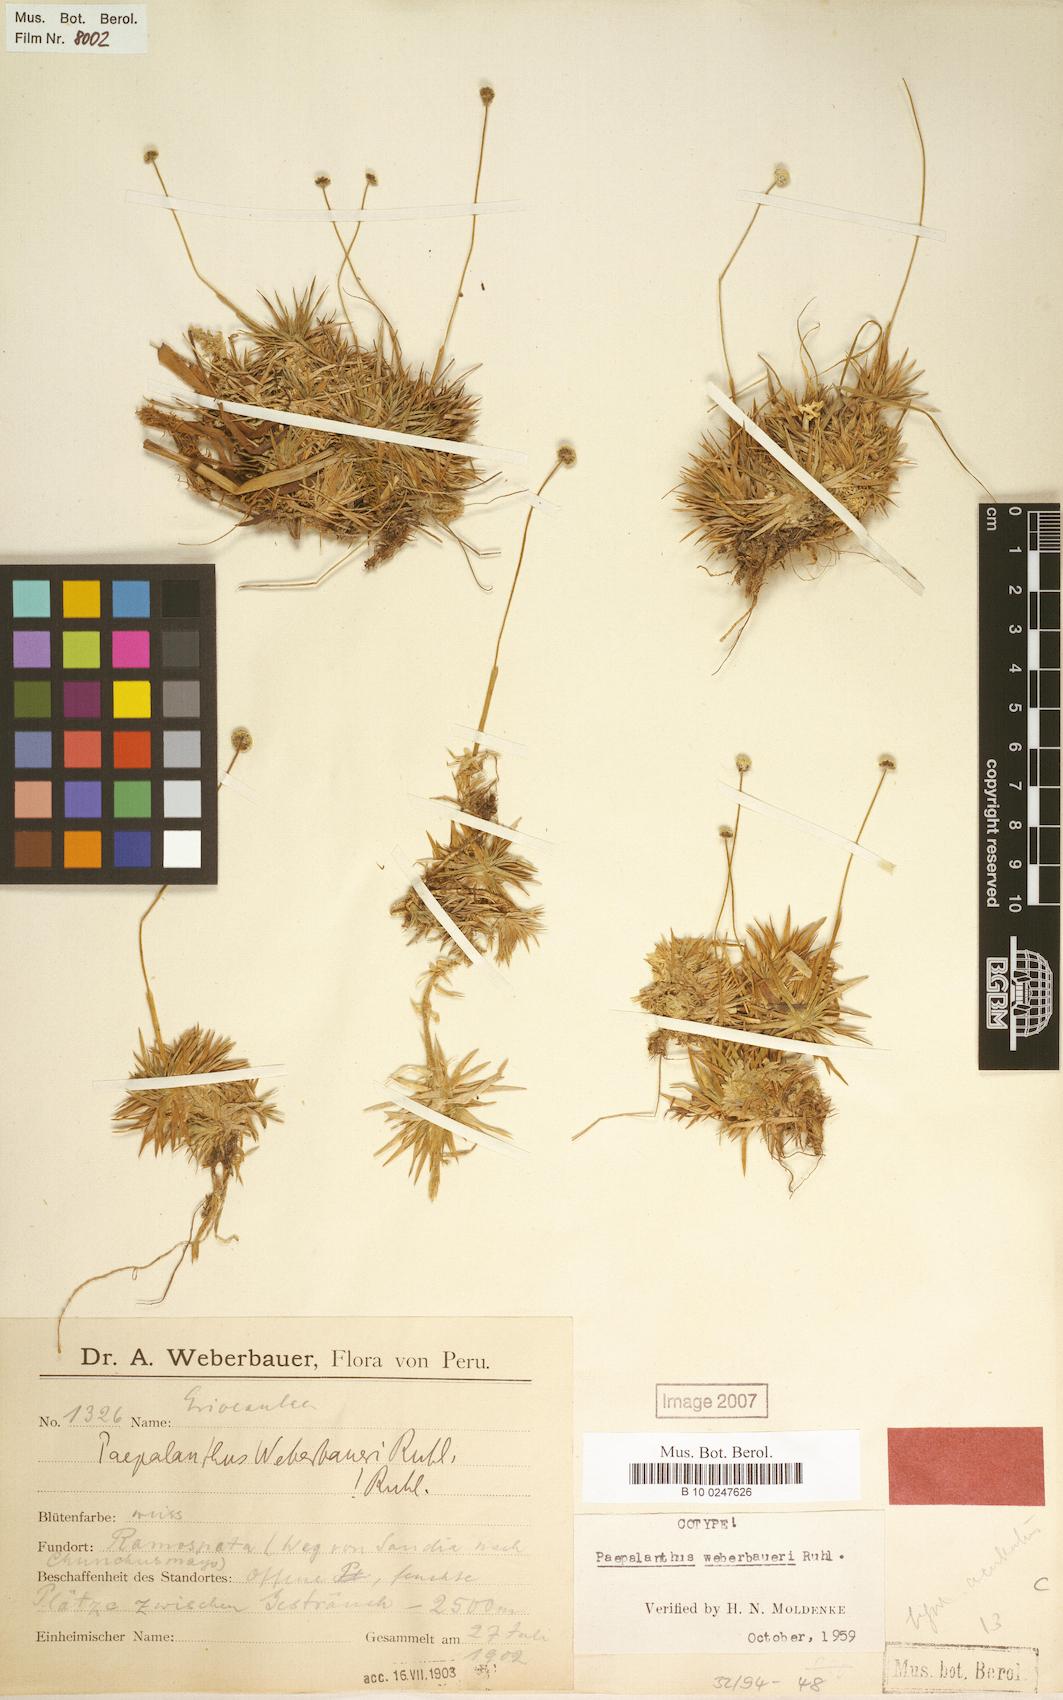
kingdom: Plantae
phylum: Tracheophyta
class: Liliopsida
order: Poales
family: Eriocaulaceae
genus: Paepalanthus
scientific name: Paepalanthus weberbaueri
